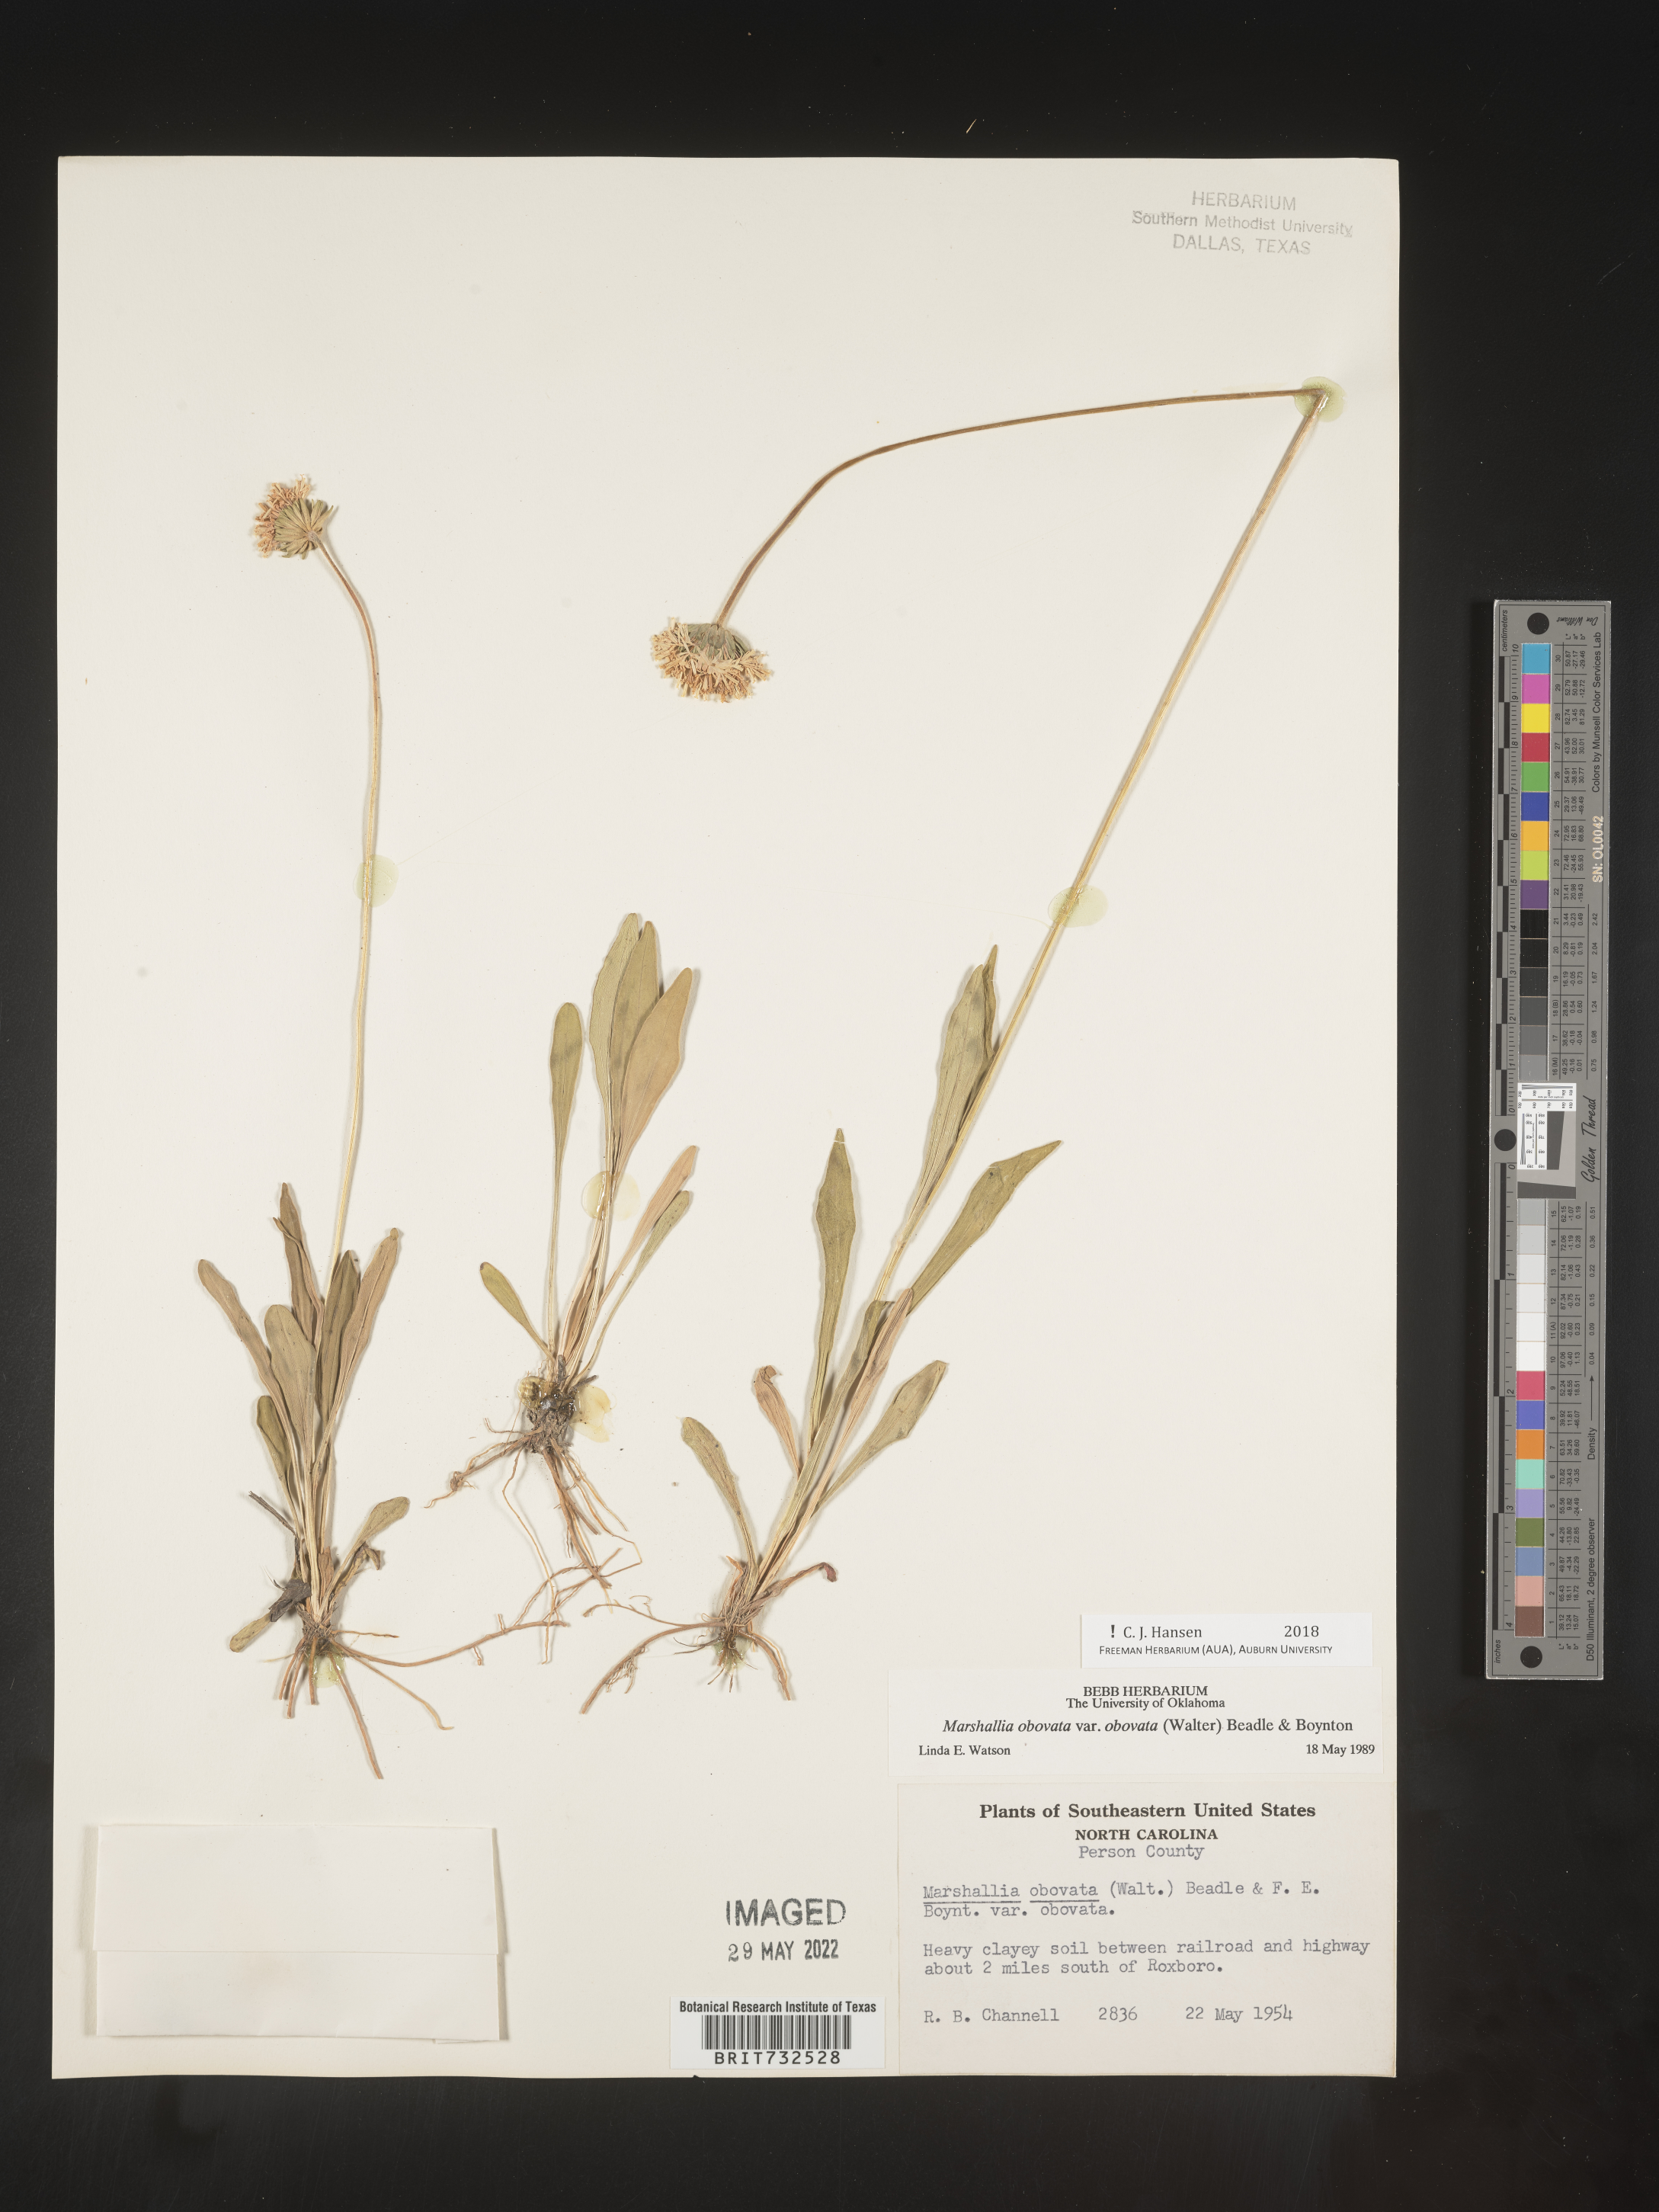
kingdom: Plantae
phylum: Tracheophyta
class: Magnoliopsida
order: Asterales
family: Asteraceae
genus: Marshallia
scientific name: Marshallia obovata
